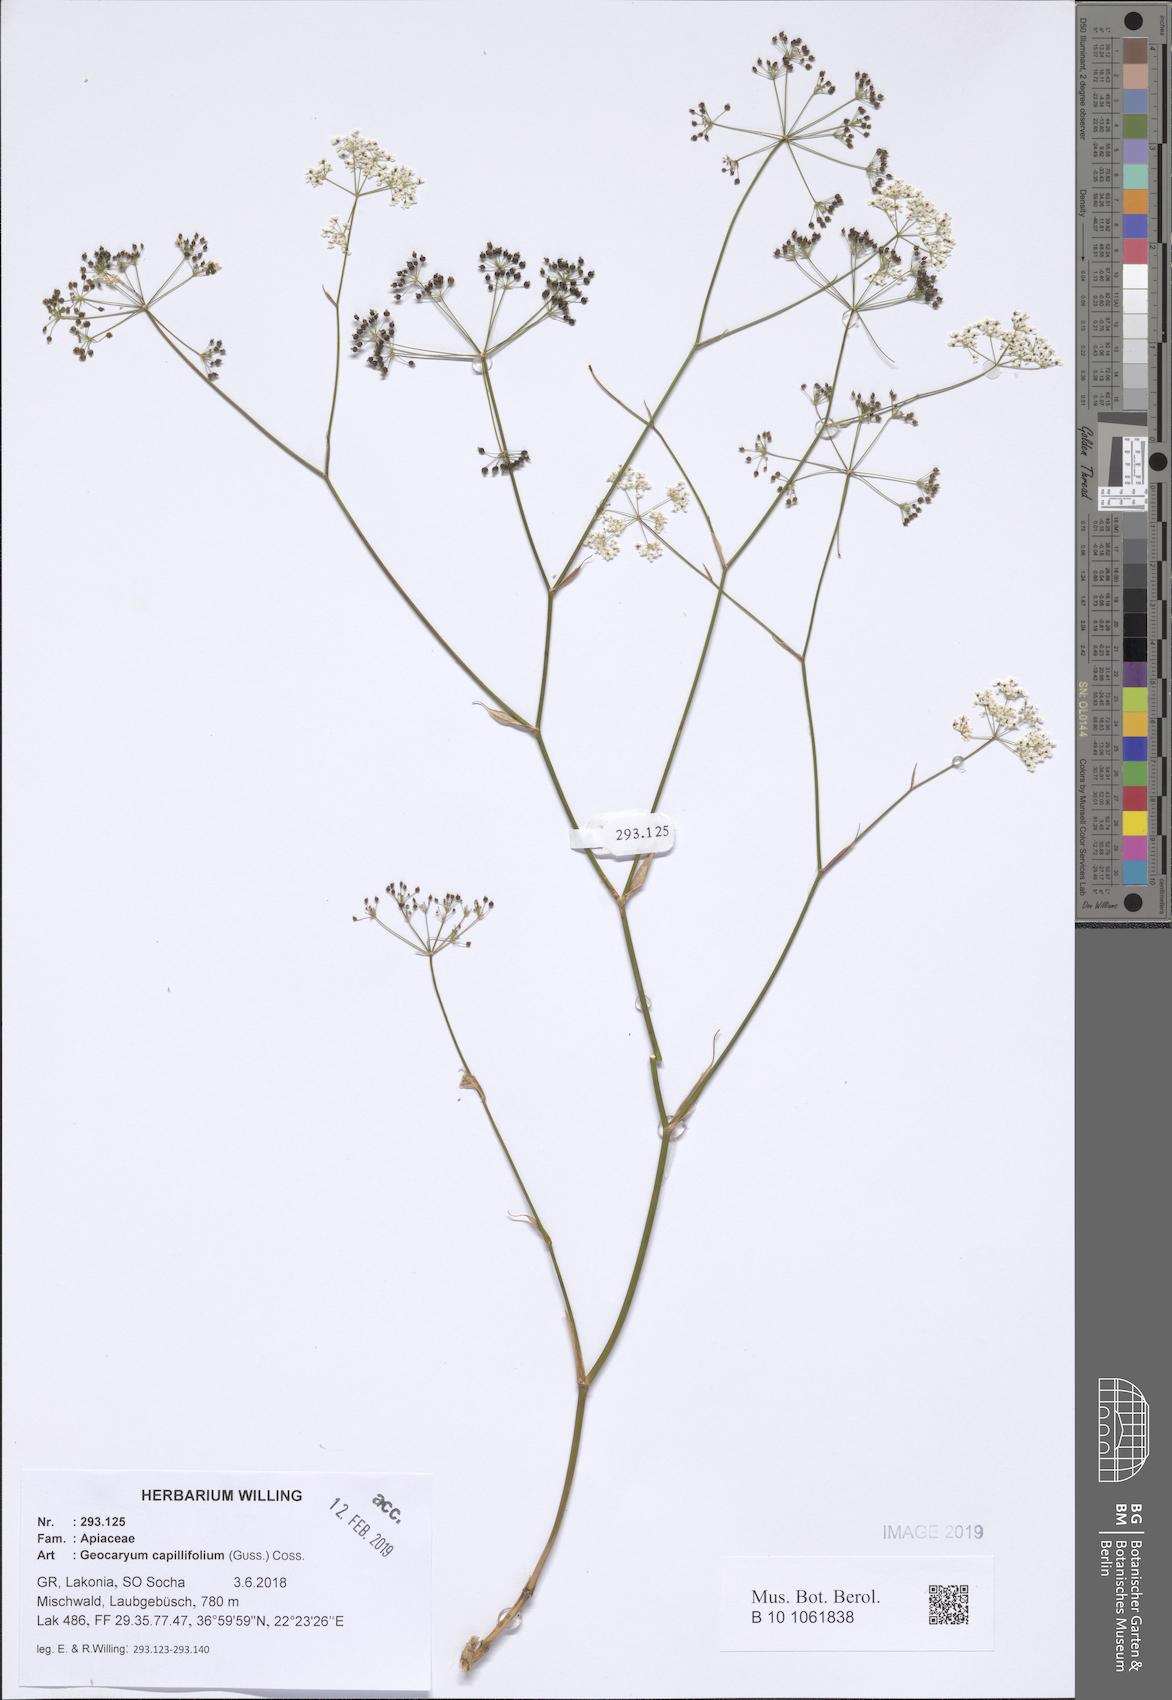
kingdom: Plantae
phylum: Tracheophyta
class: Magnoliopsida
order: Apiales
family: Apiaceae
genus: Geocaryum
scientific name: Geocaryum capillifolium
